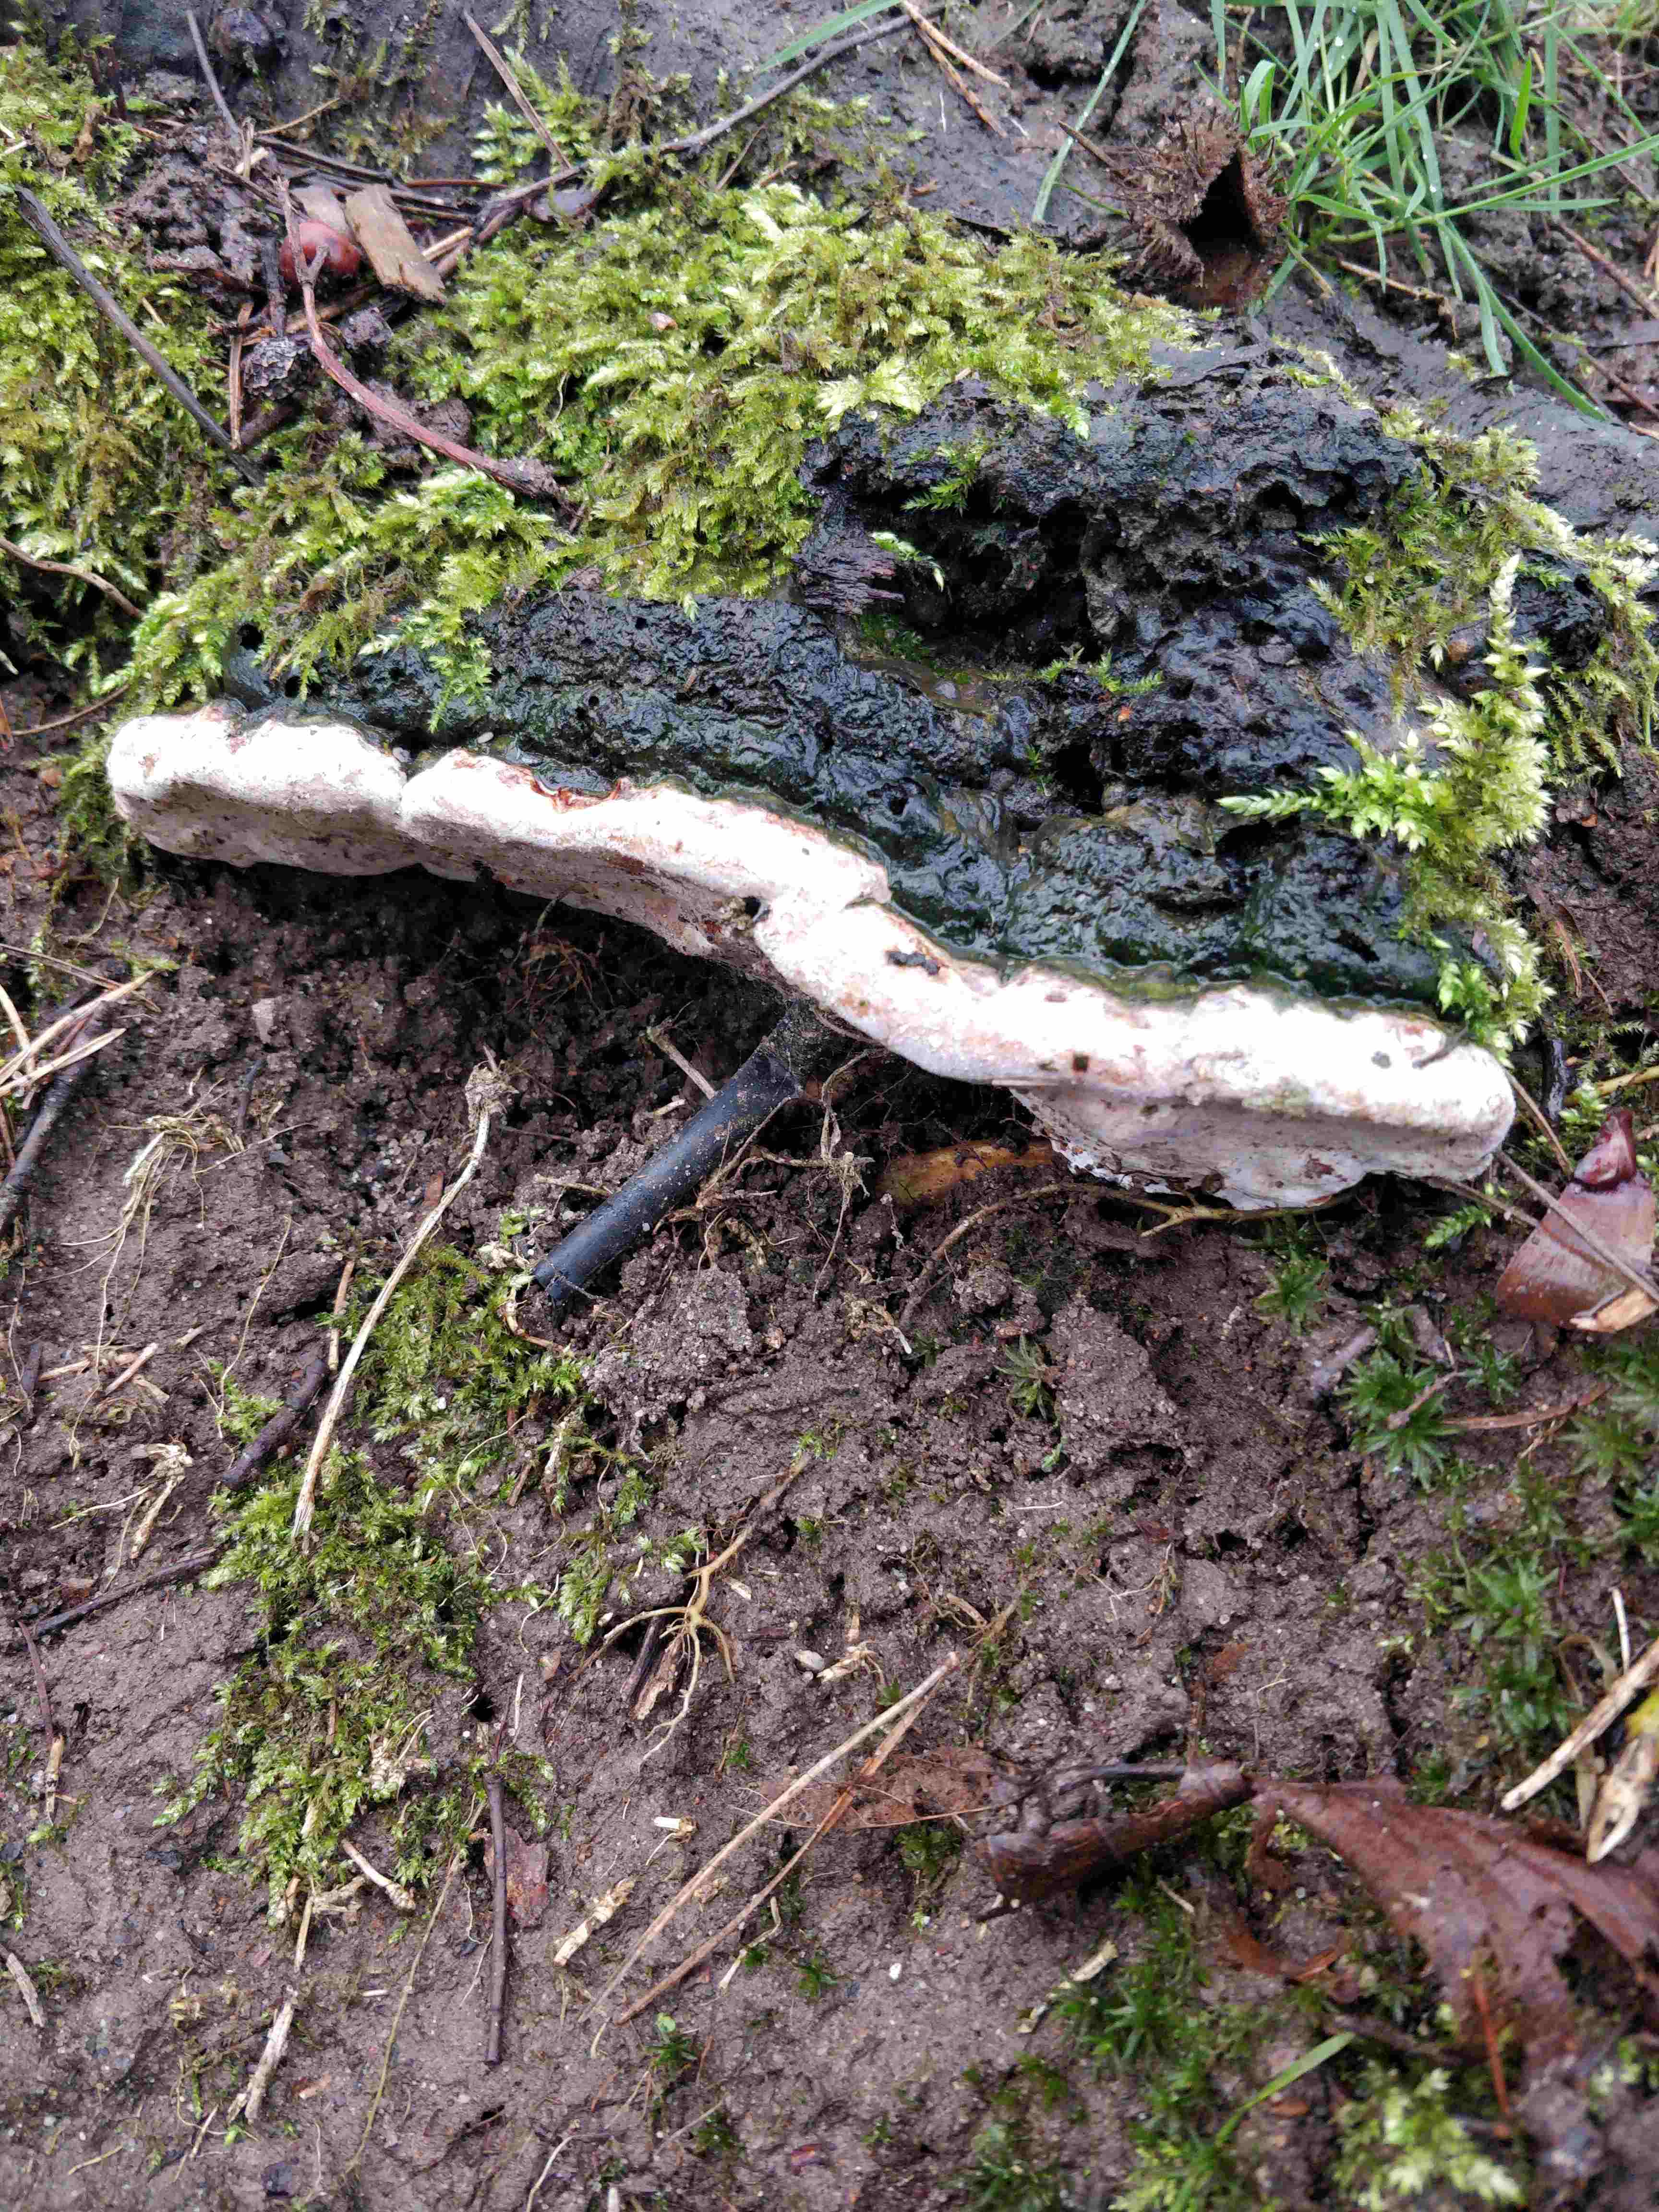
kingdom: Fungi
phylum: Basidiomycota
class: Agaricomycetes
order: Polyporales
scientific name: Polyporales
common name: poresvampordenen
